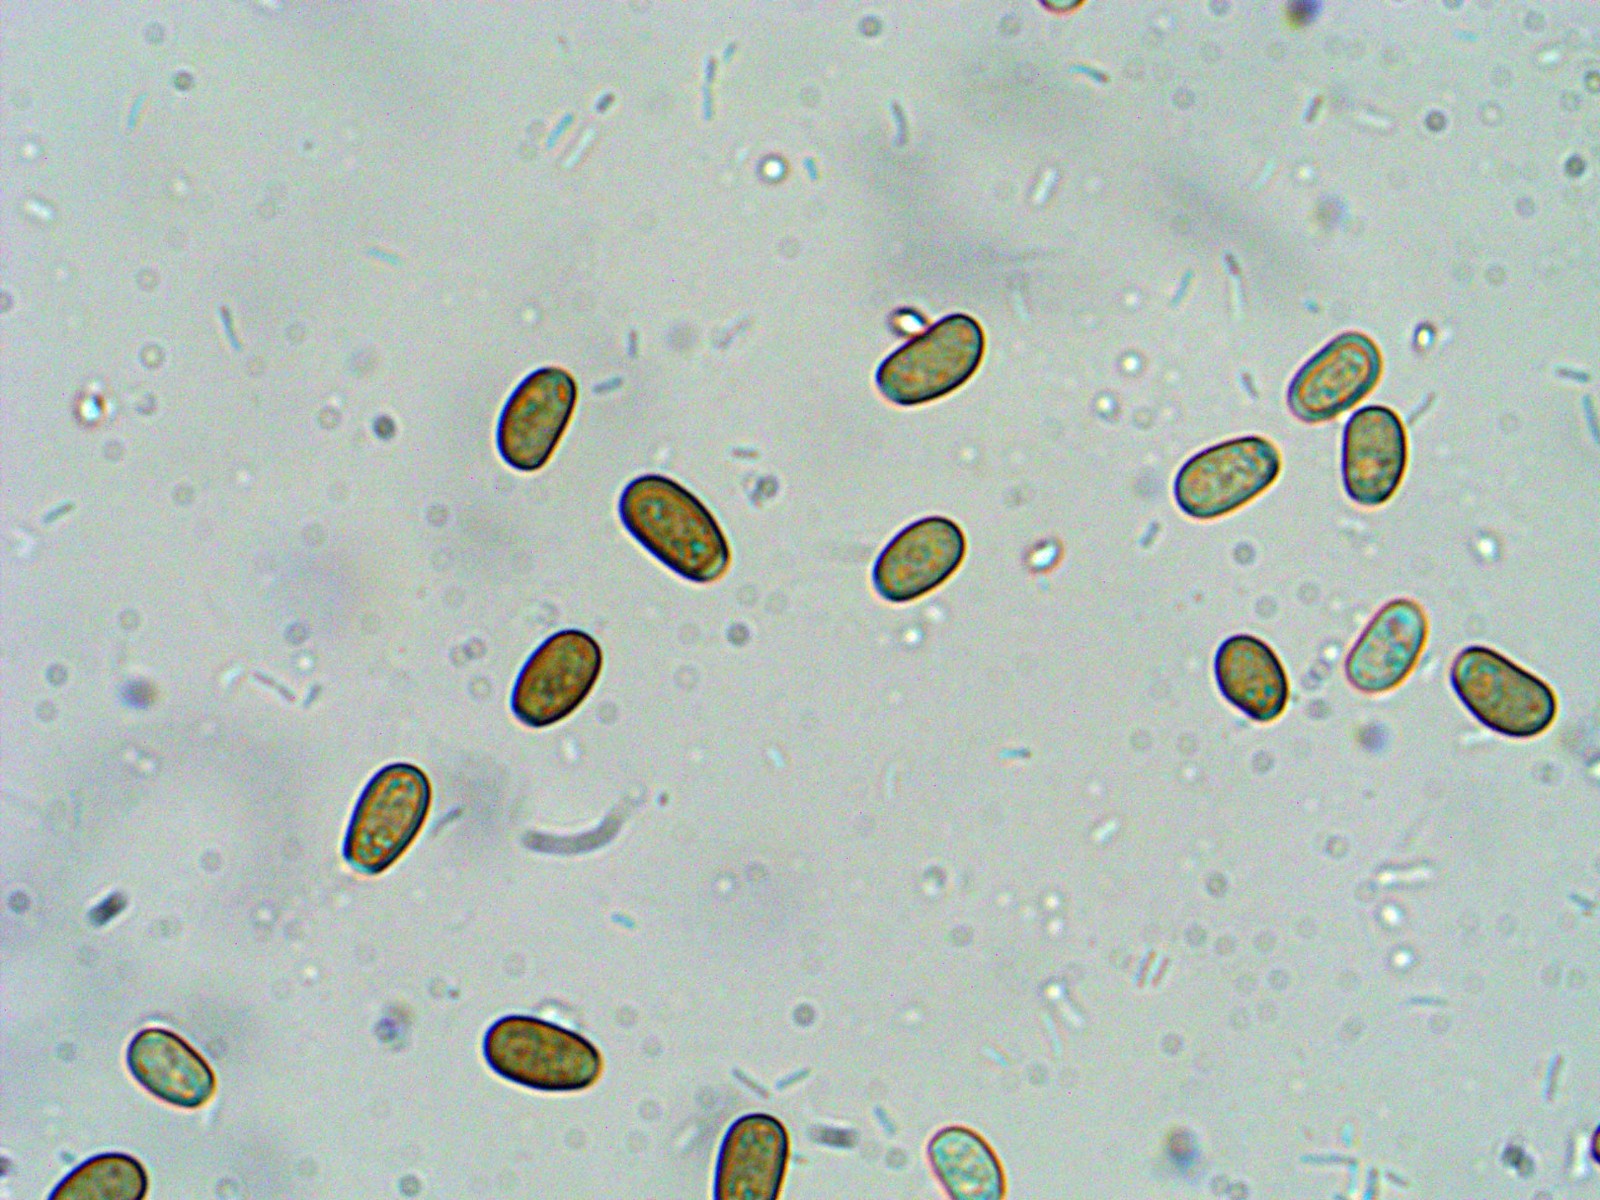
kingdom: Fungi
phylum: Basidiomycota
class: Agaricomycetes
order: Agaricales
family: Psathyrellaceae
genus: Coprinellus
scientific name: Coprinellus domesticus
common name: hus-blækhat
